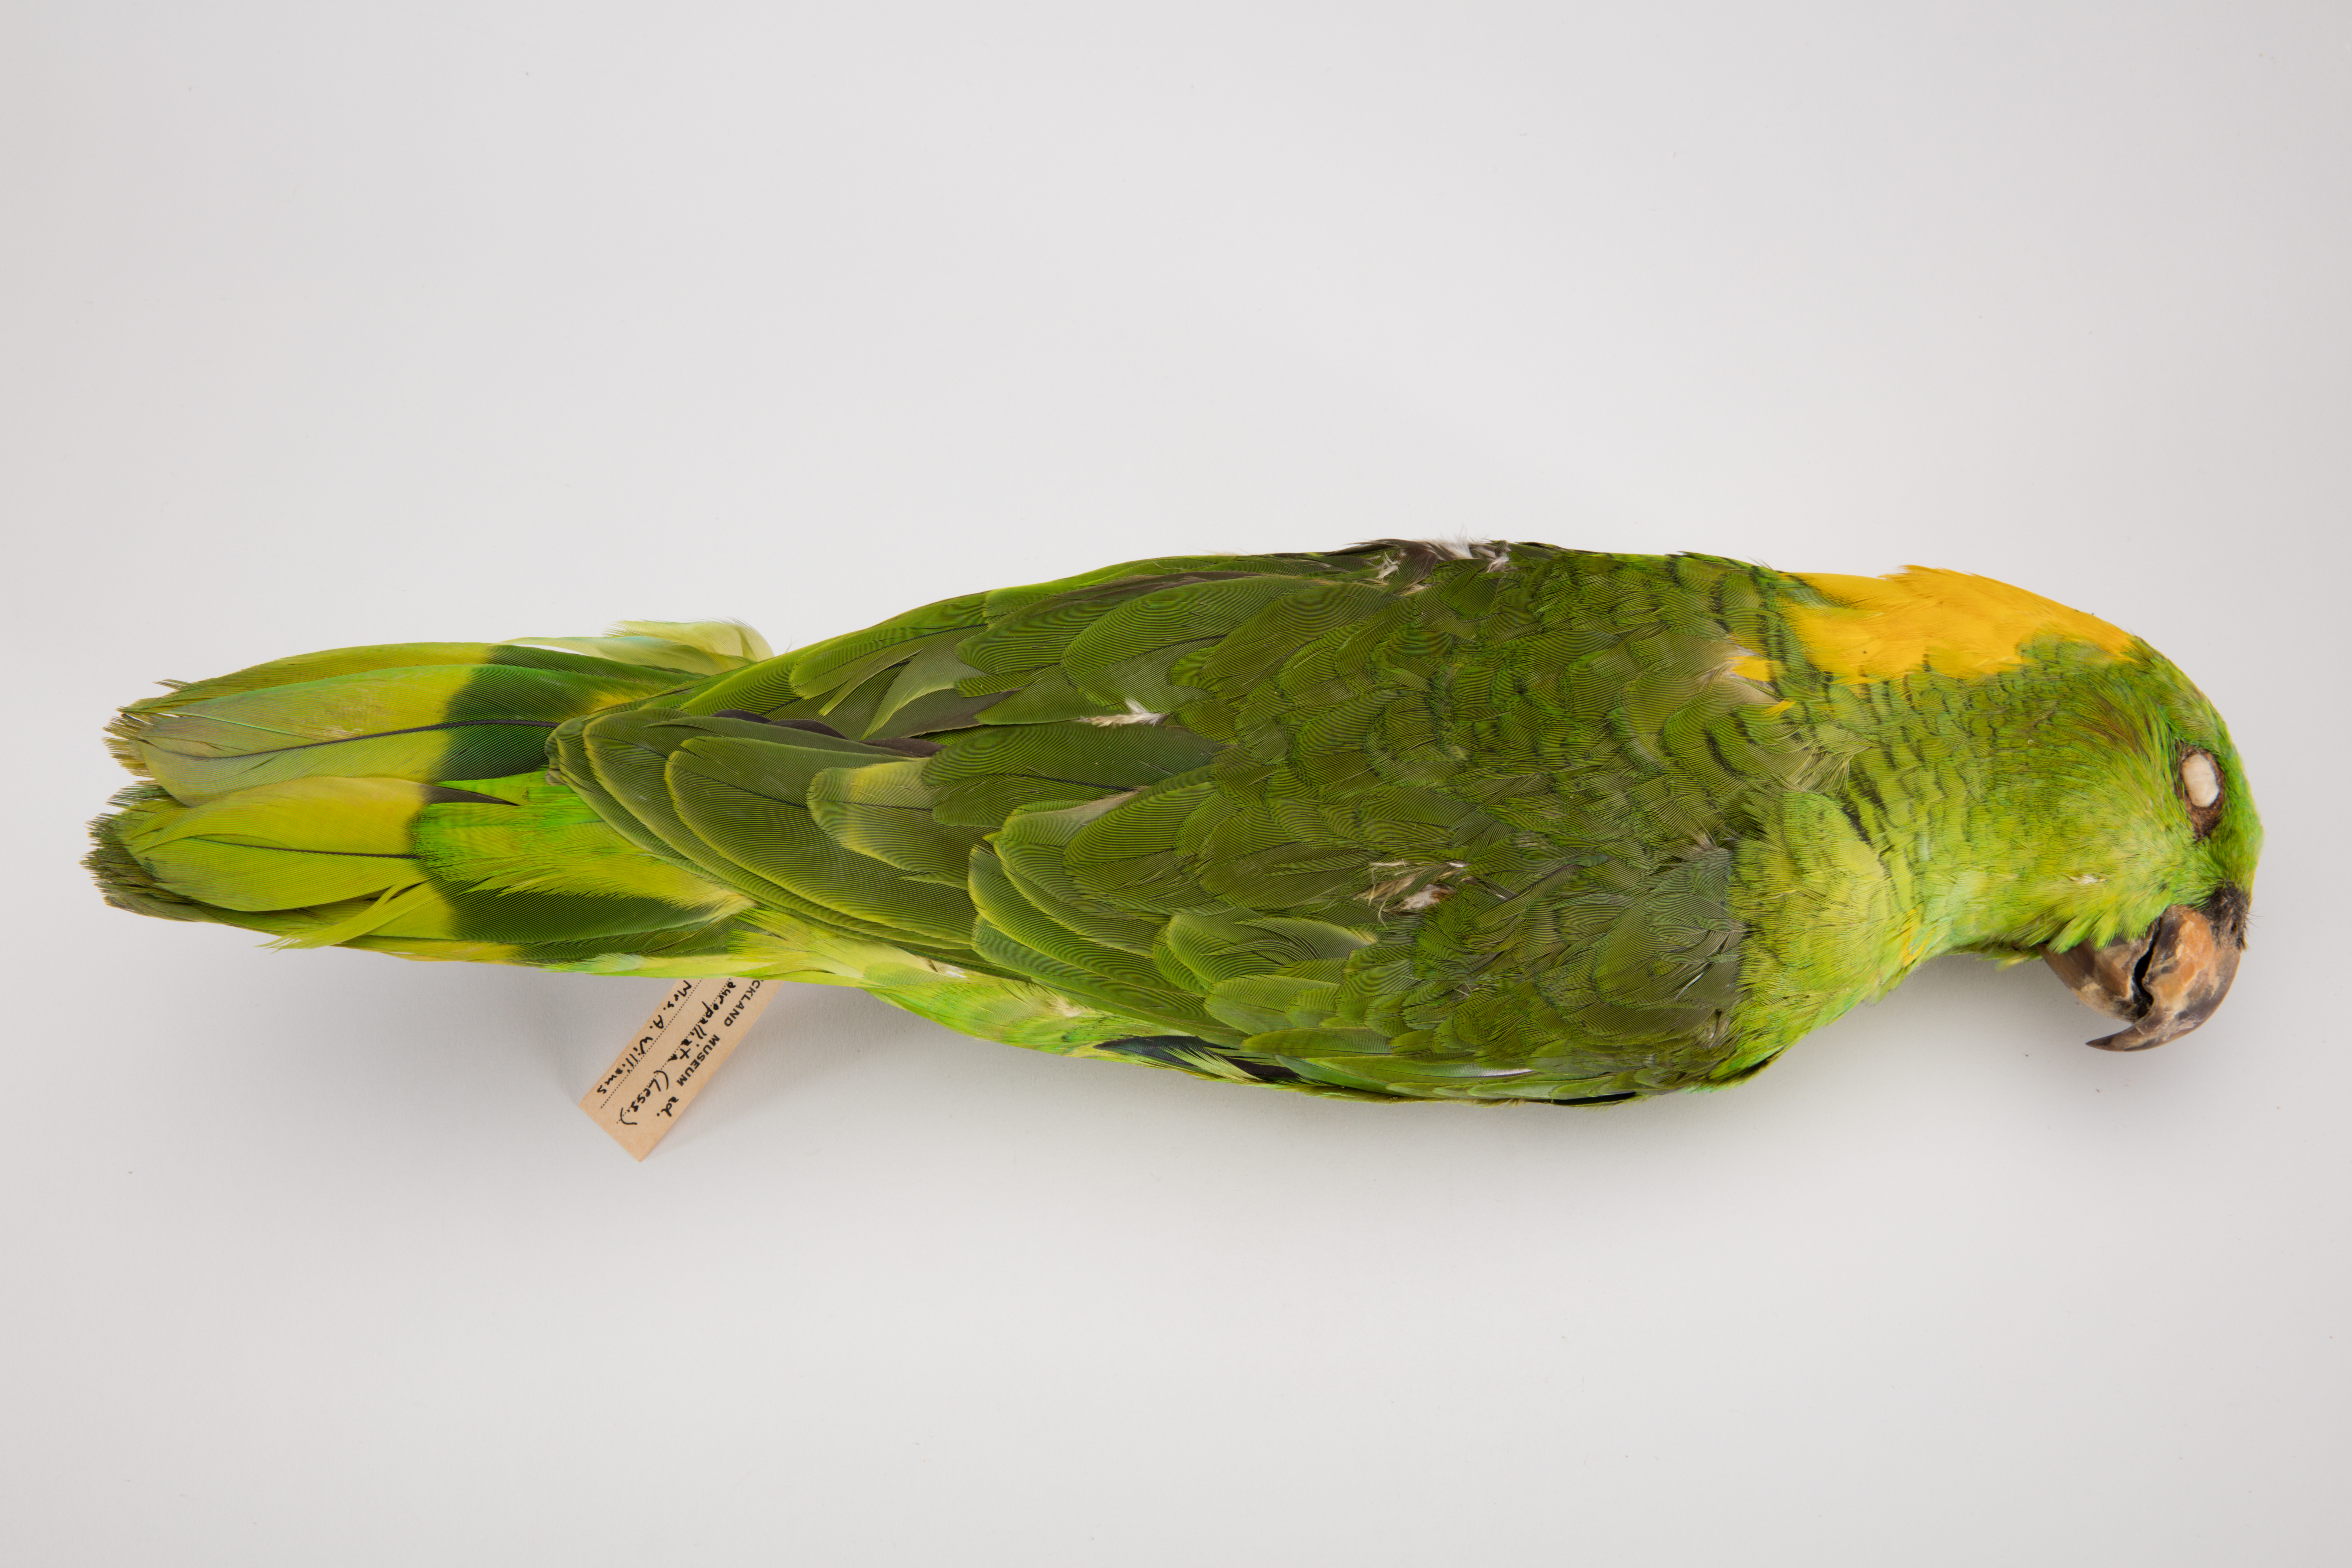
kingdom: Animalia
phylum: Chordata
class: Aves
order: Psittaciformes
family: Psittacidae
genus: Amazona
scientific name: Amazona auropalliata
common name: Yellow-naped amazon
